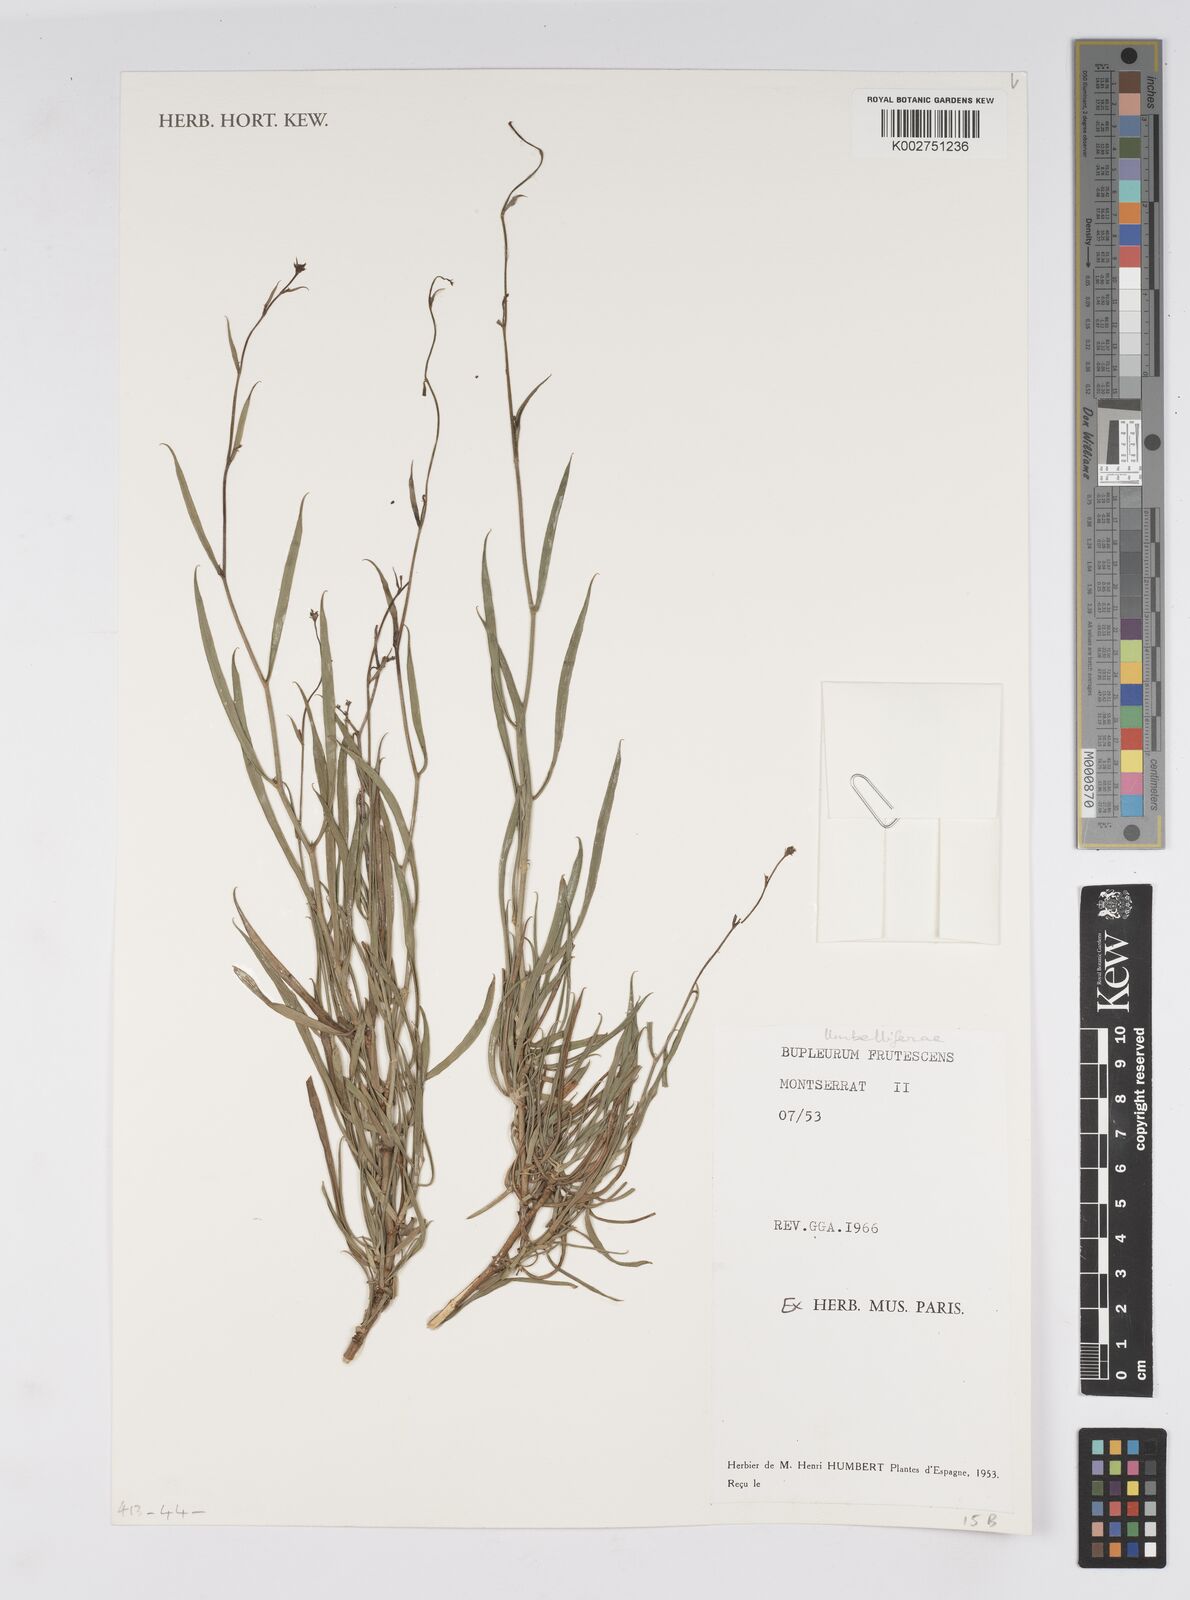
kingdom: Plantae
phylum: Tracheophyta
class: Magnoliopsida
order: Apiales
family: Apiaceae
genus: Bupleurum
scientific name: Bupleurum fruticescens
